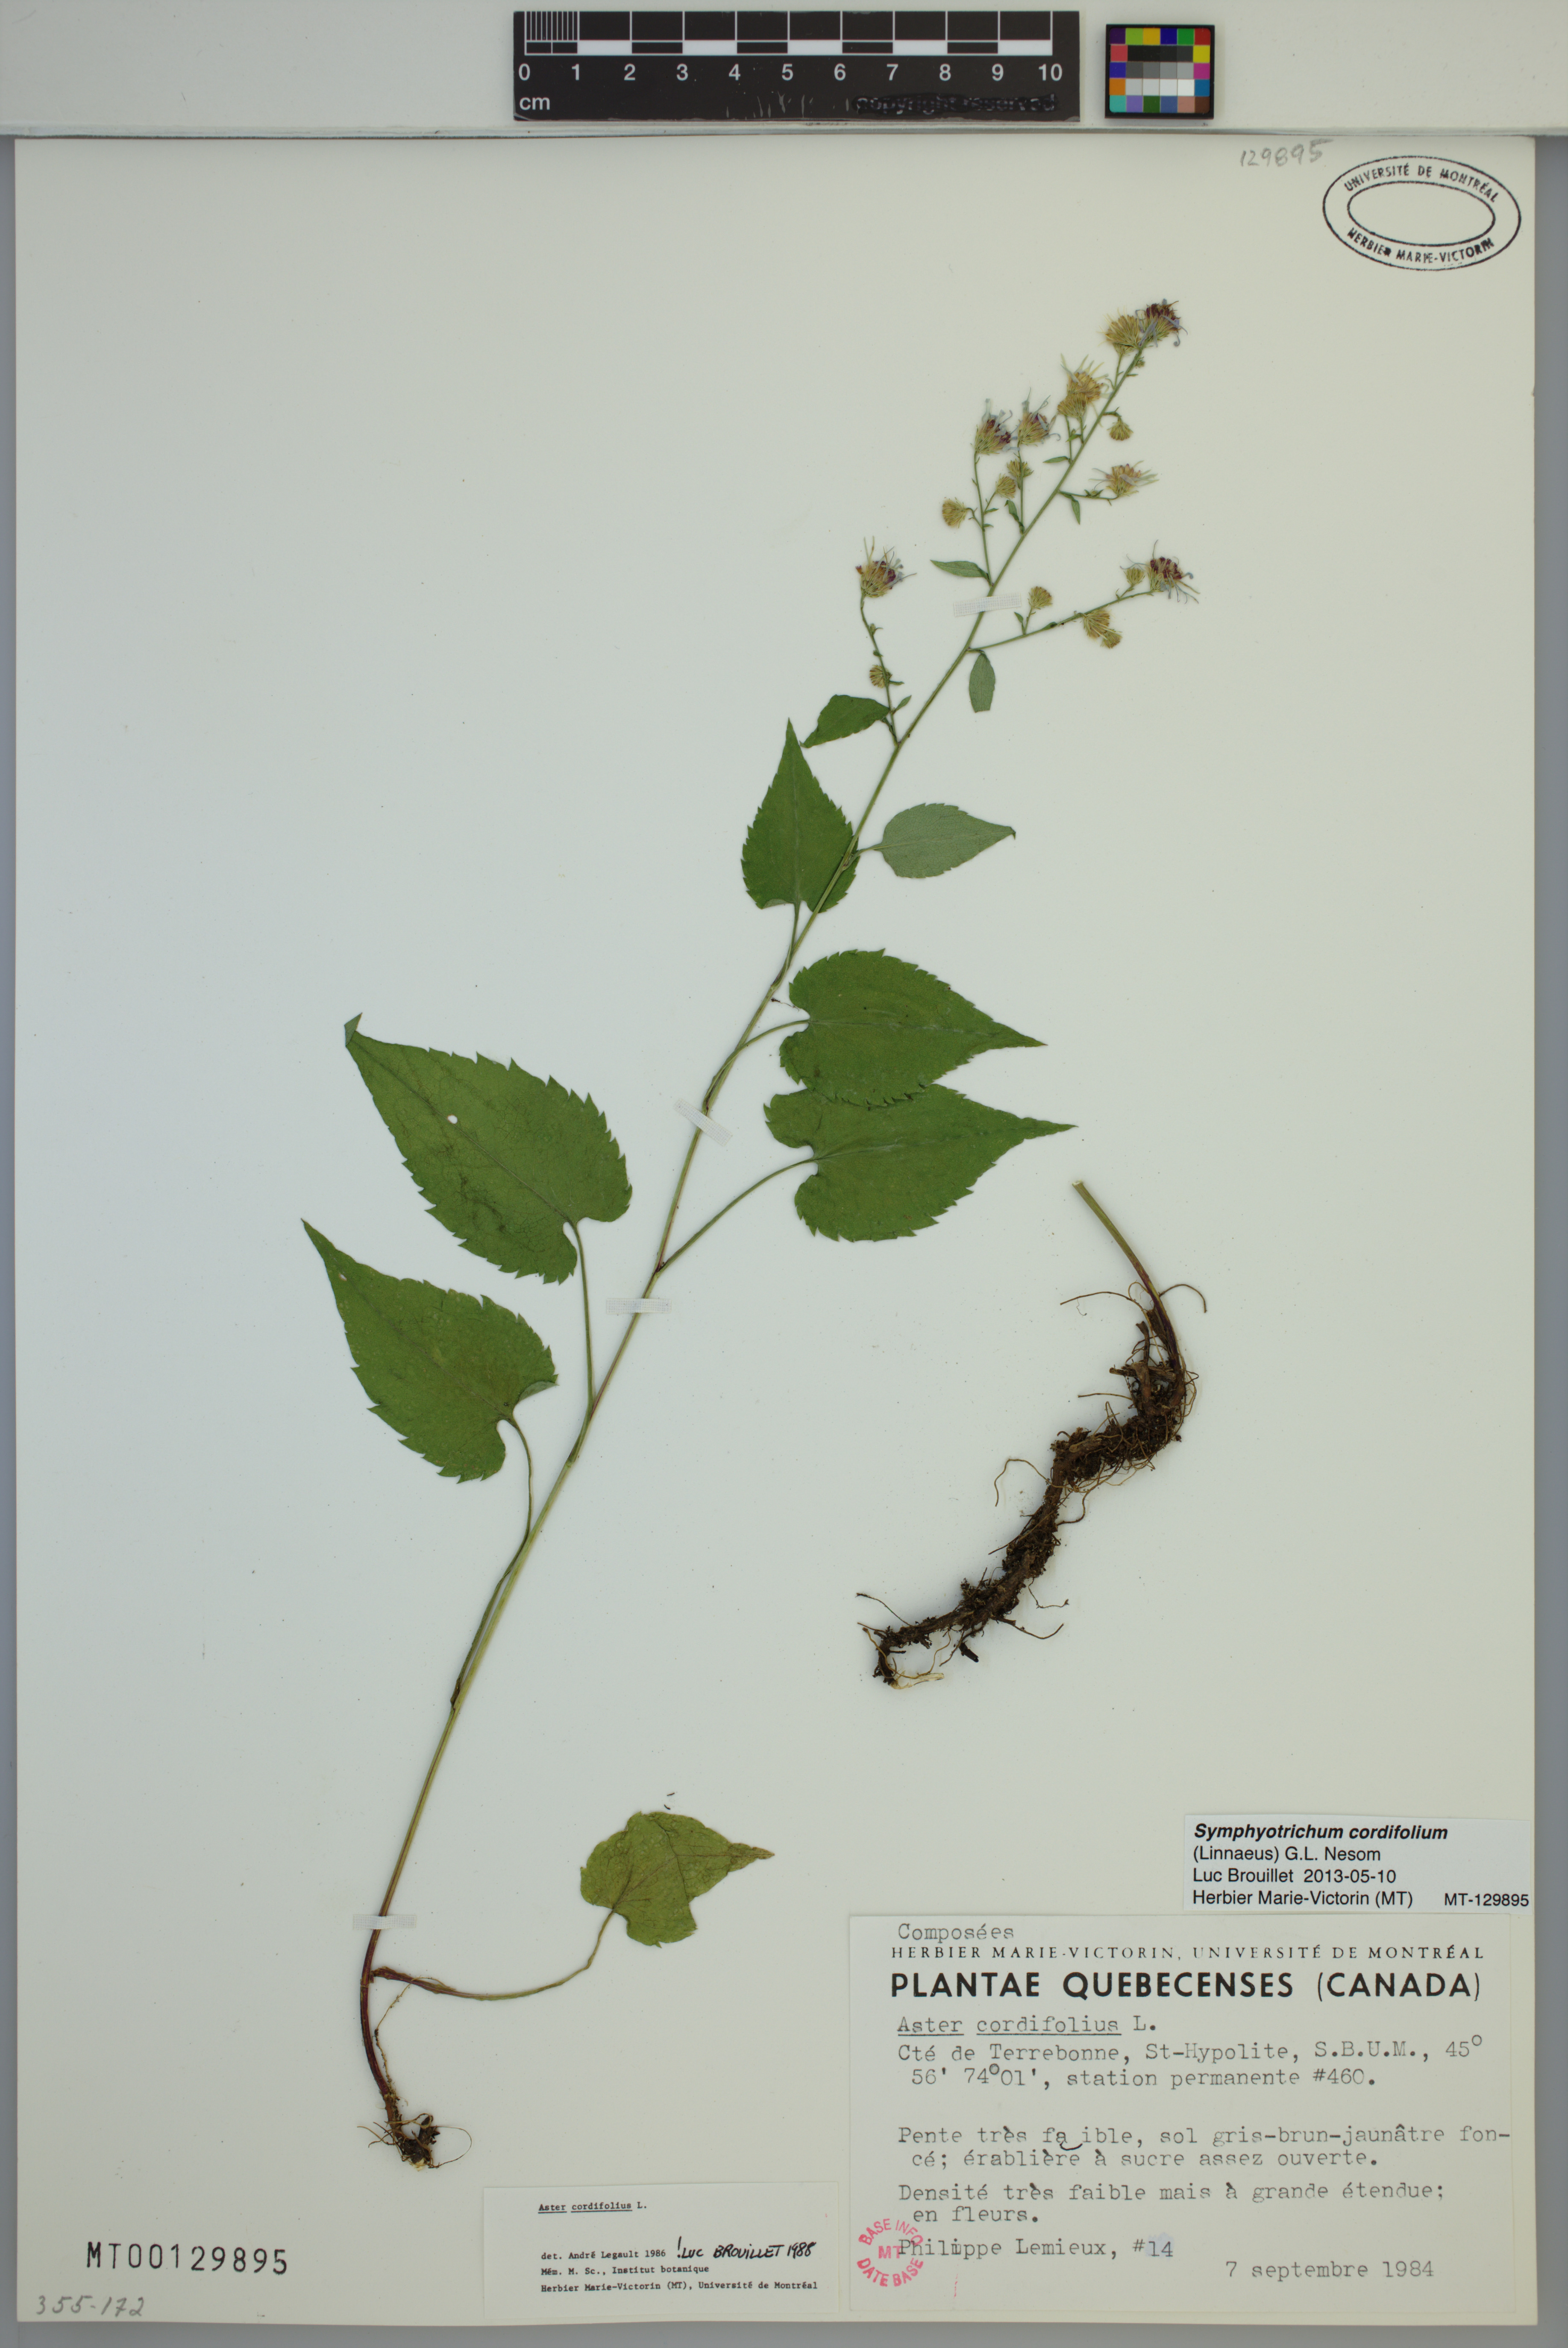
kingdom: Plantae
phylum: Tracheophyta
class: Magnoliopsida
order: Asterales
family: Asteraceae
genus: Symphyotrichum
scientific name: Symphyotrichum cordifolium
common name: Beeweed
